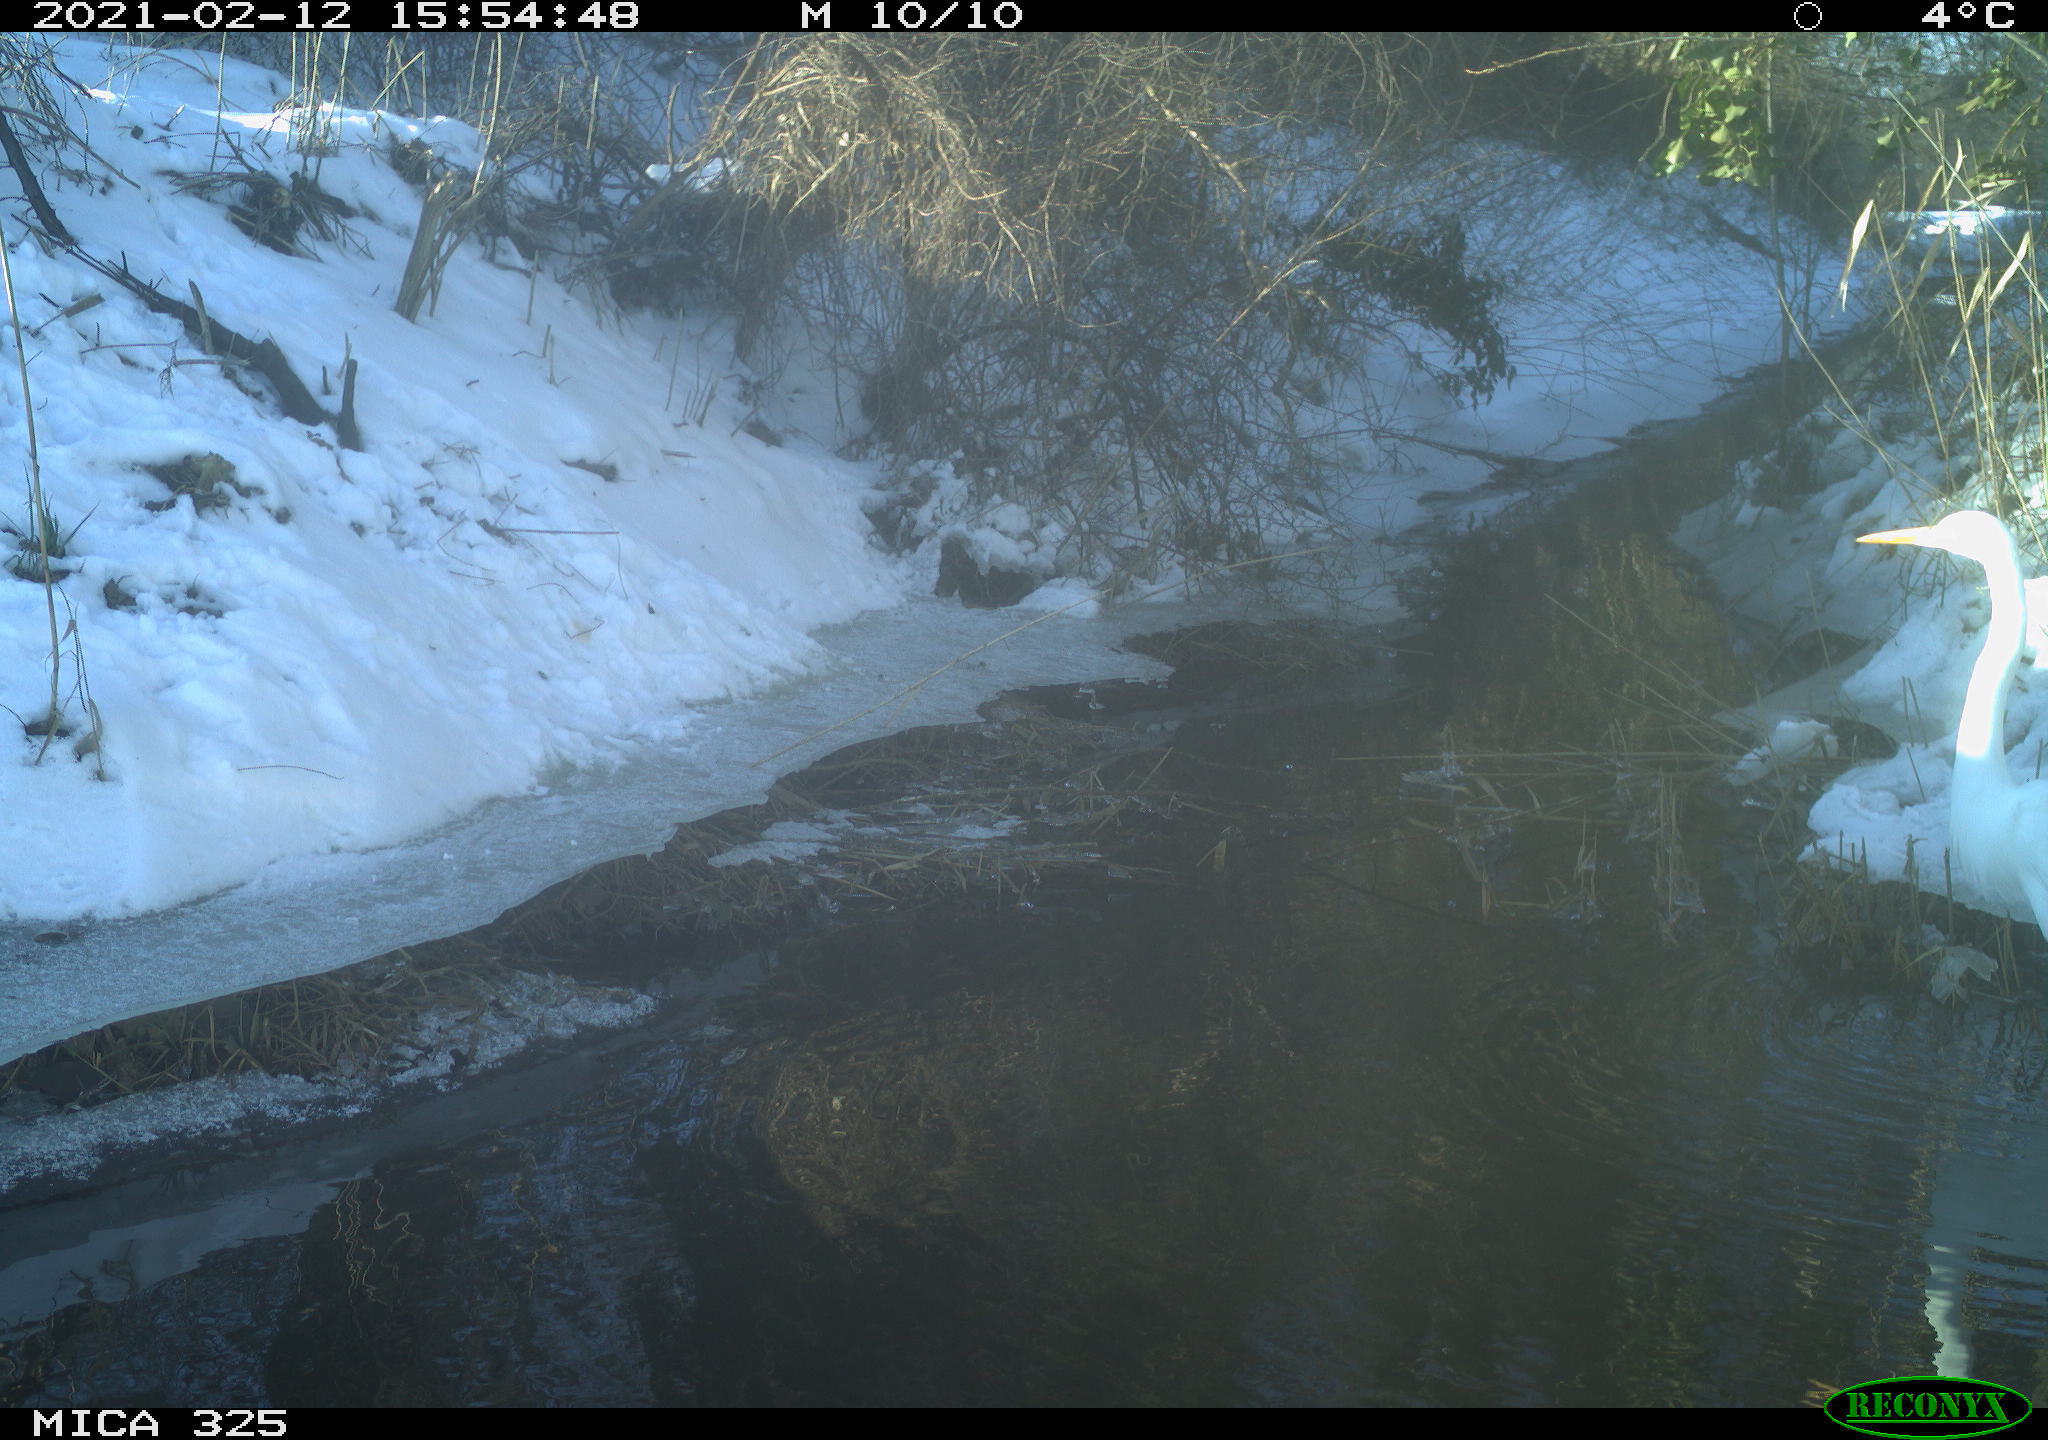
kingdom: Animalia
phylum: Chordata
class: Aves
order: Pelecaniformes
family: Ardeidae
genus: Ardea
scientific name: Ardea alba
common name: Great egret
